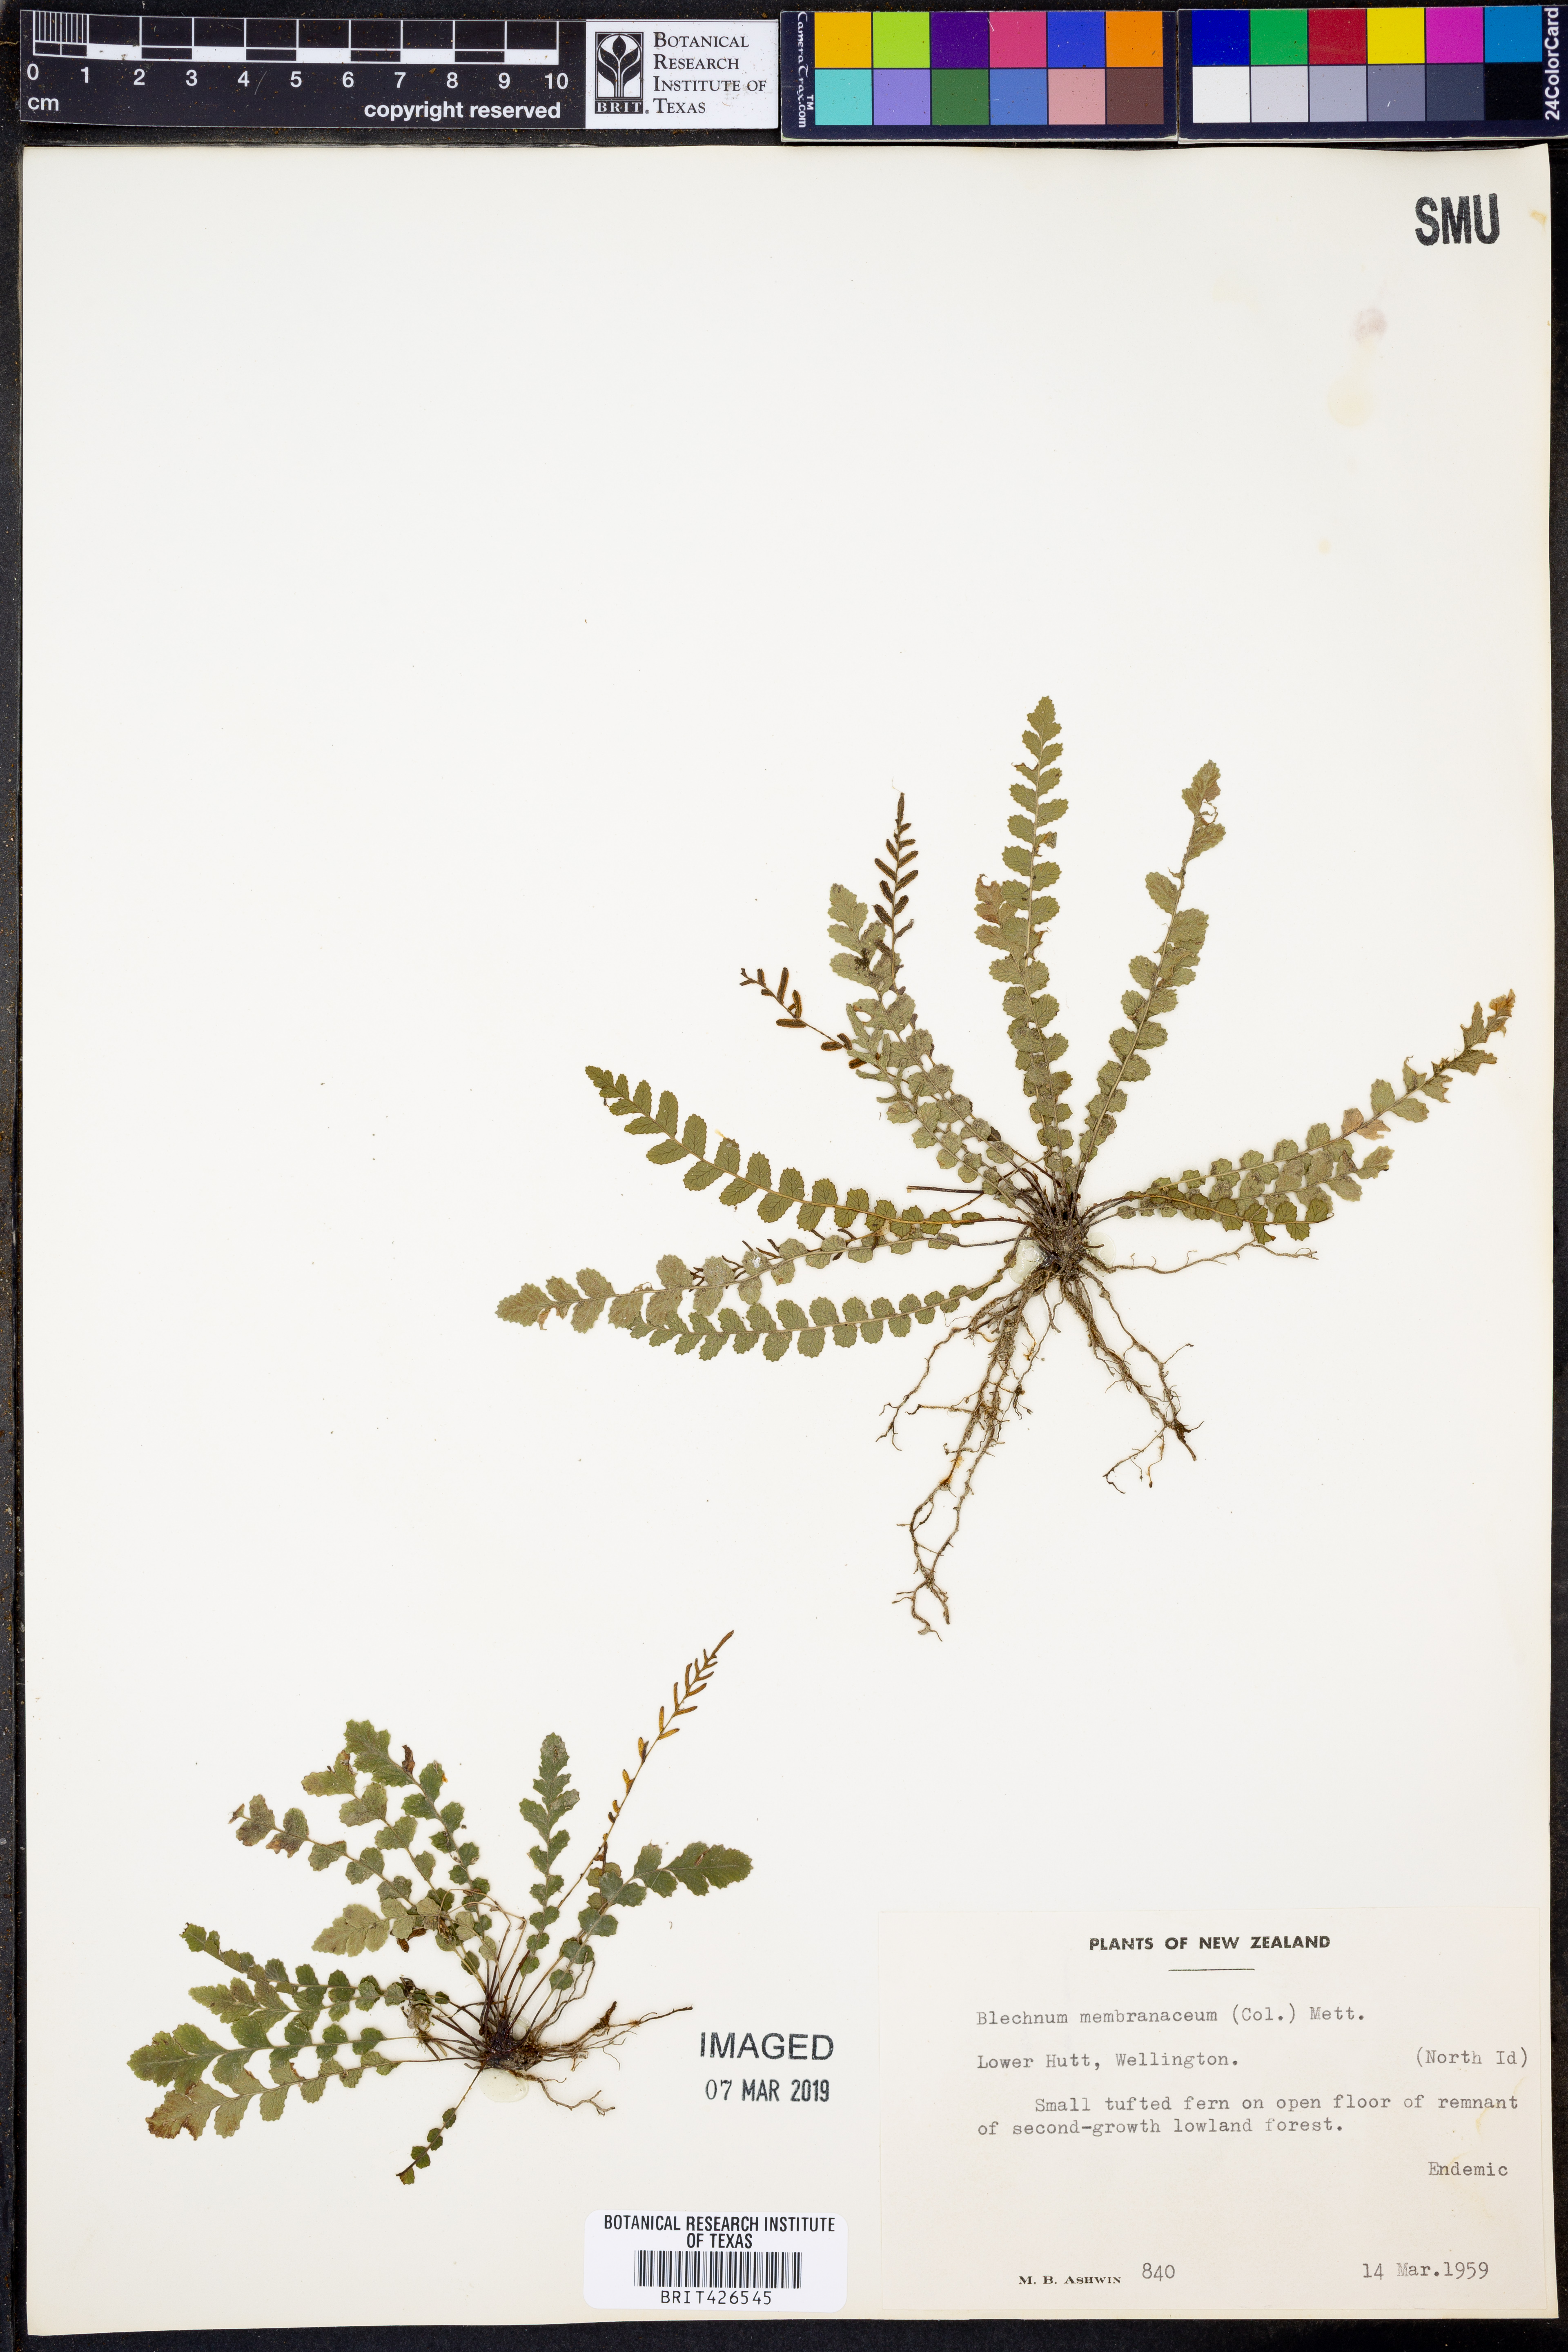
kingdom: Plantae
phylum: Tracheophyta
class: Polypodiopsida
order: Polypodiales
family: Blechnaceae
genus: Austroblechnum
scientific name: Austroblechnum membranaceum
